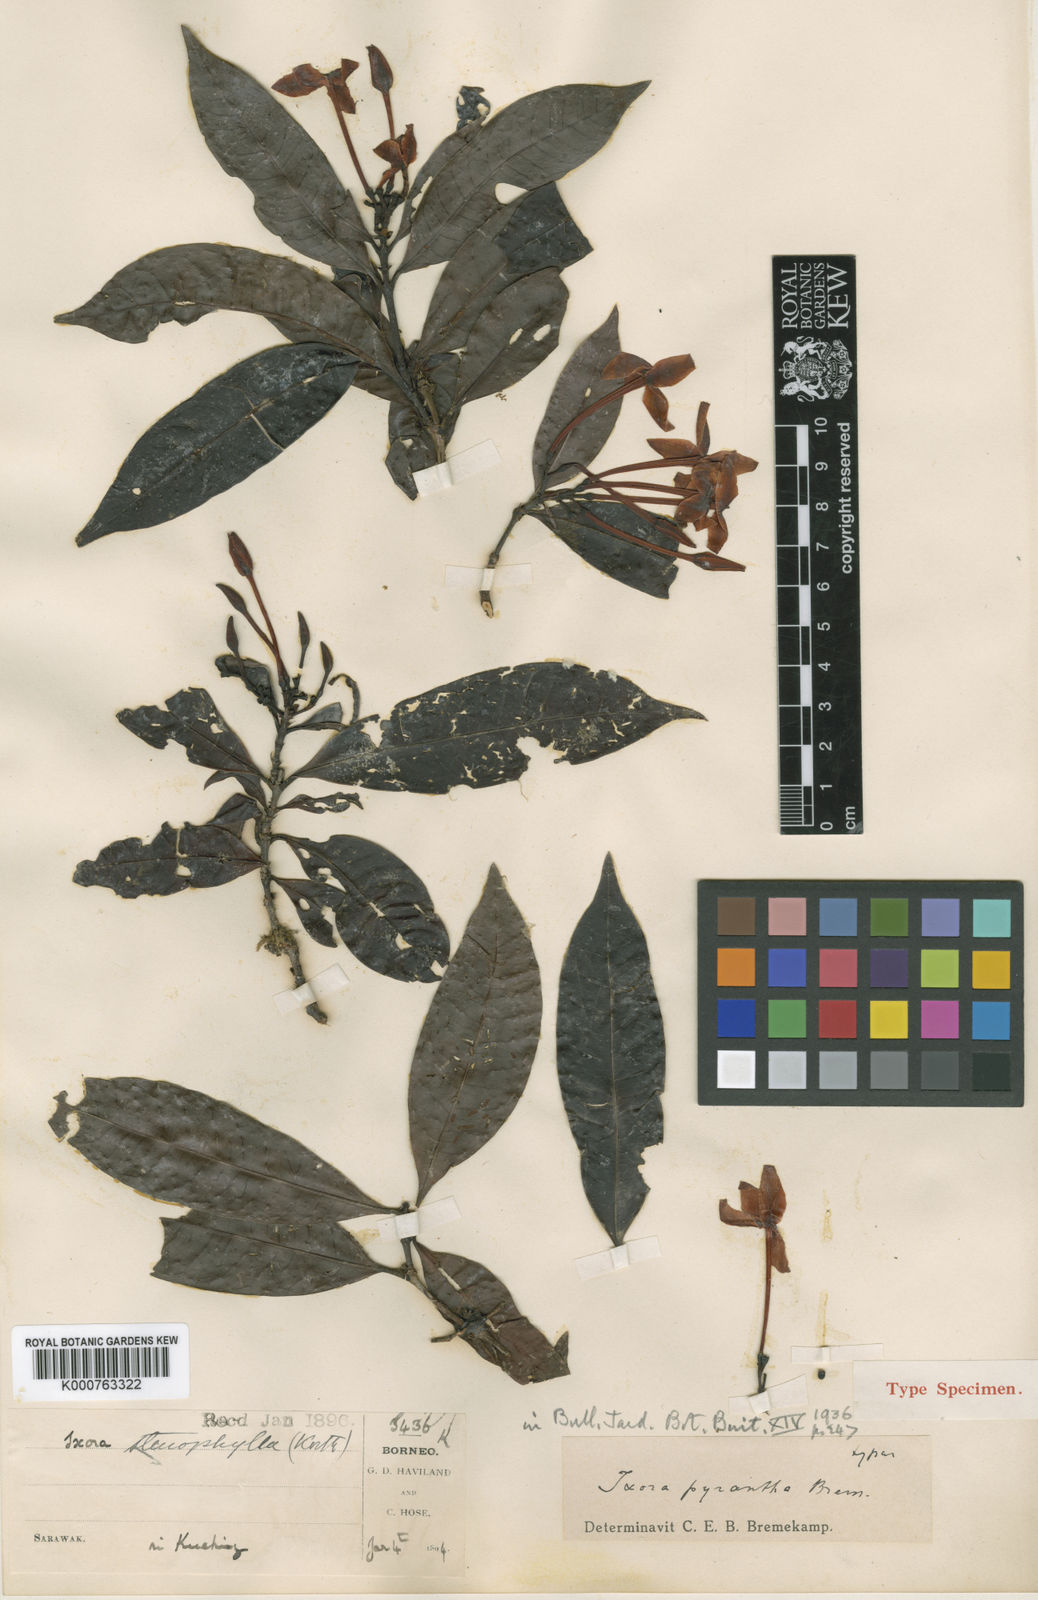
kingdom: Plantae
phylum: Tracheophyta
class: Magnoliopsida
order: Gentianales
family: Rubiaceae
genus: Ixora
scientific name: Ixora pyrantha
